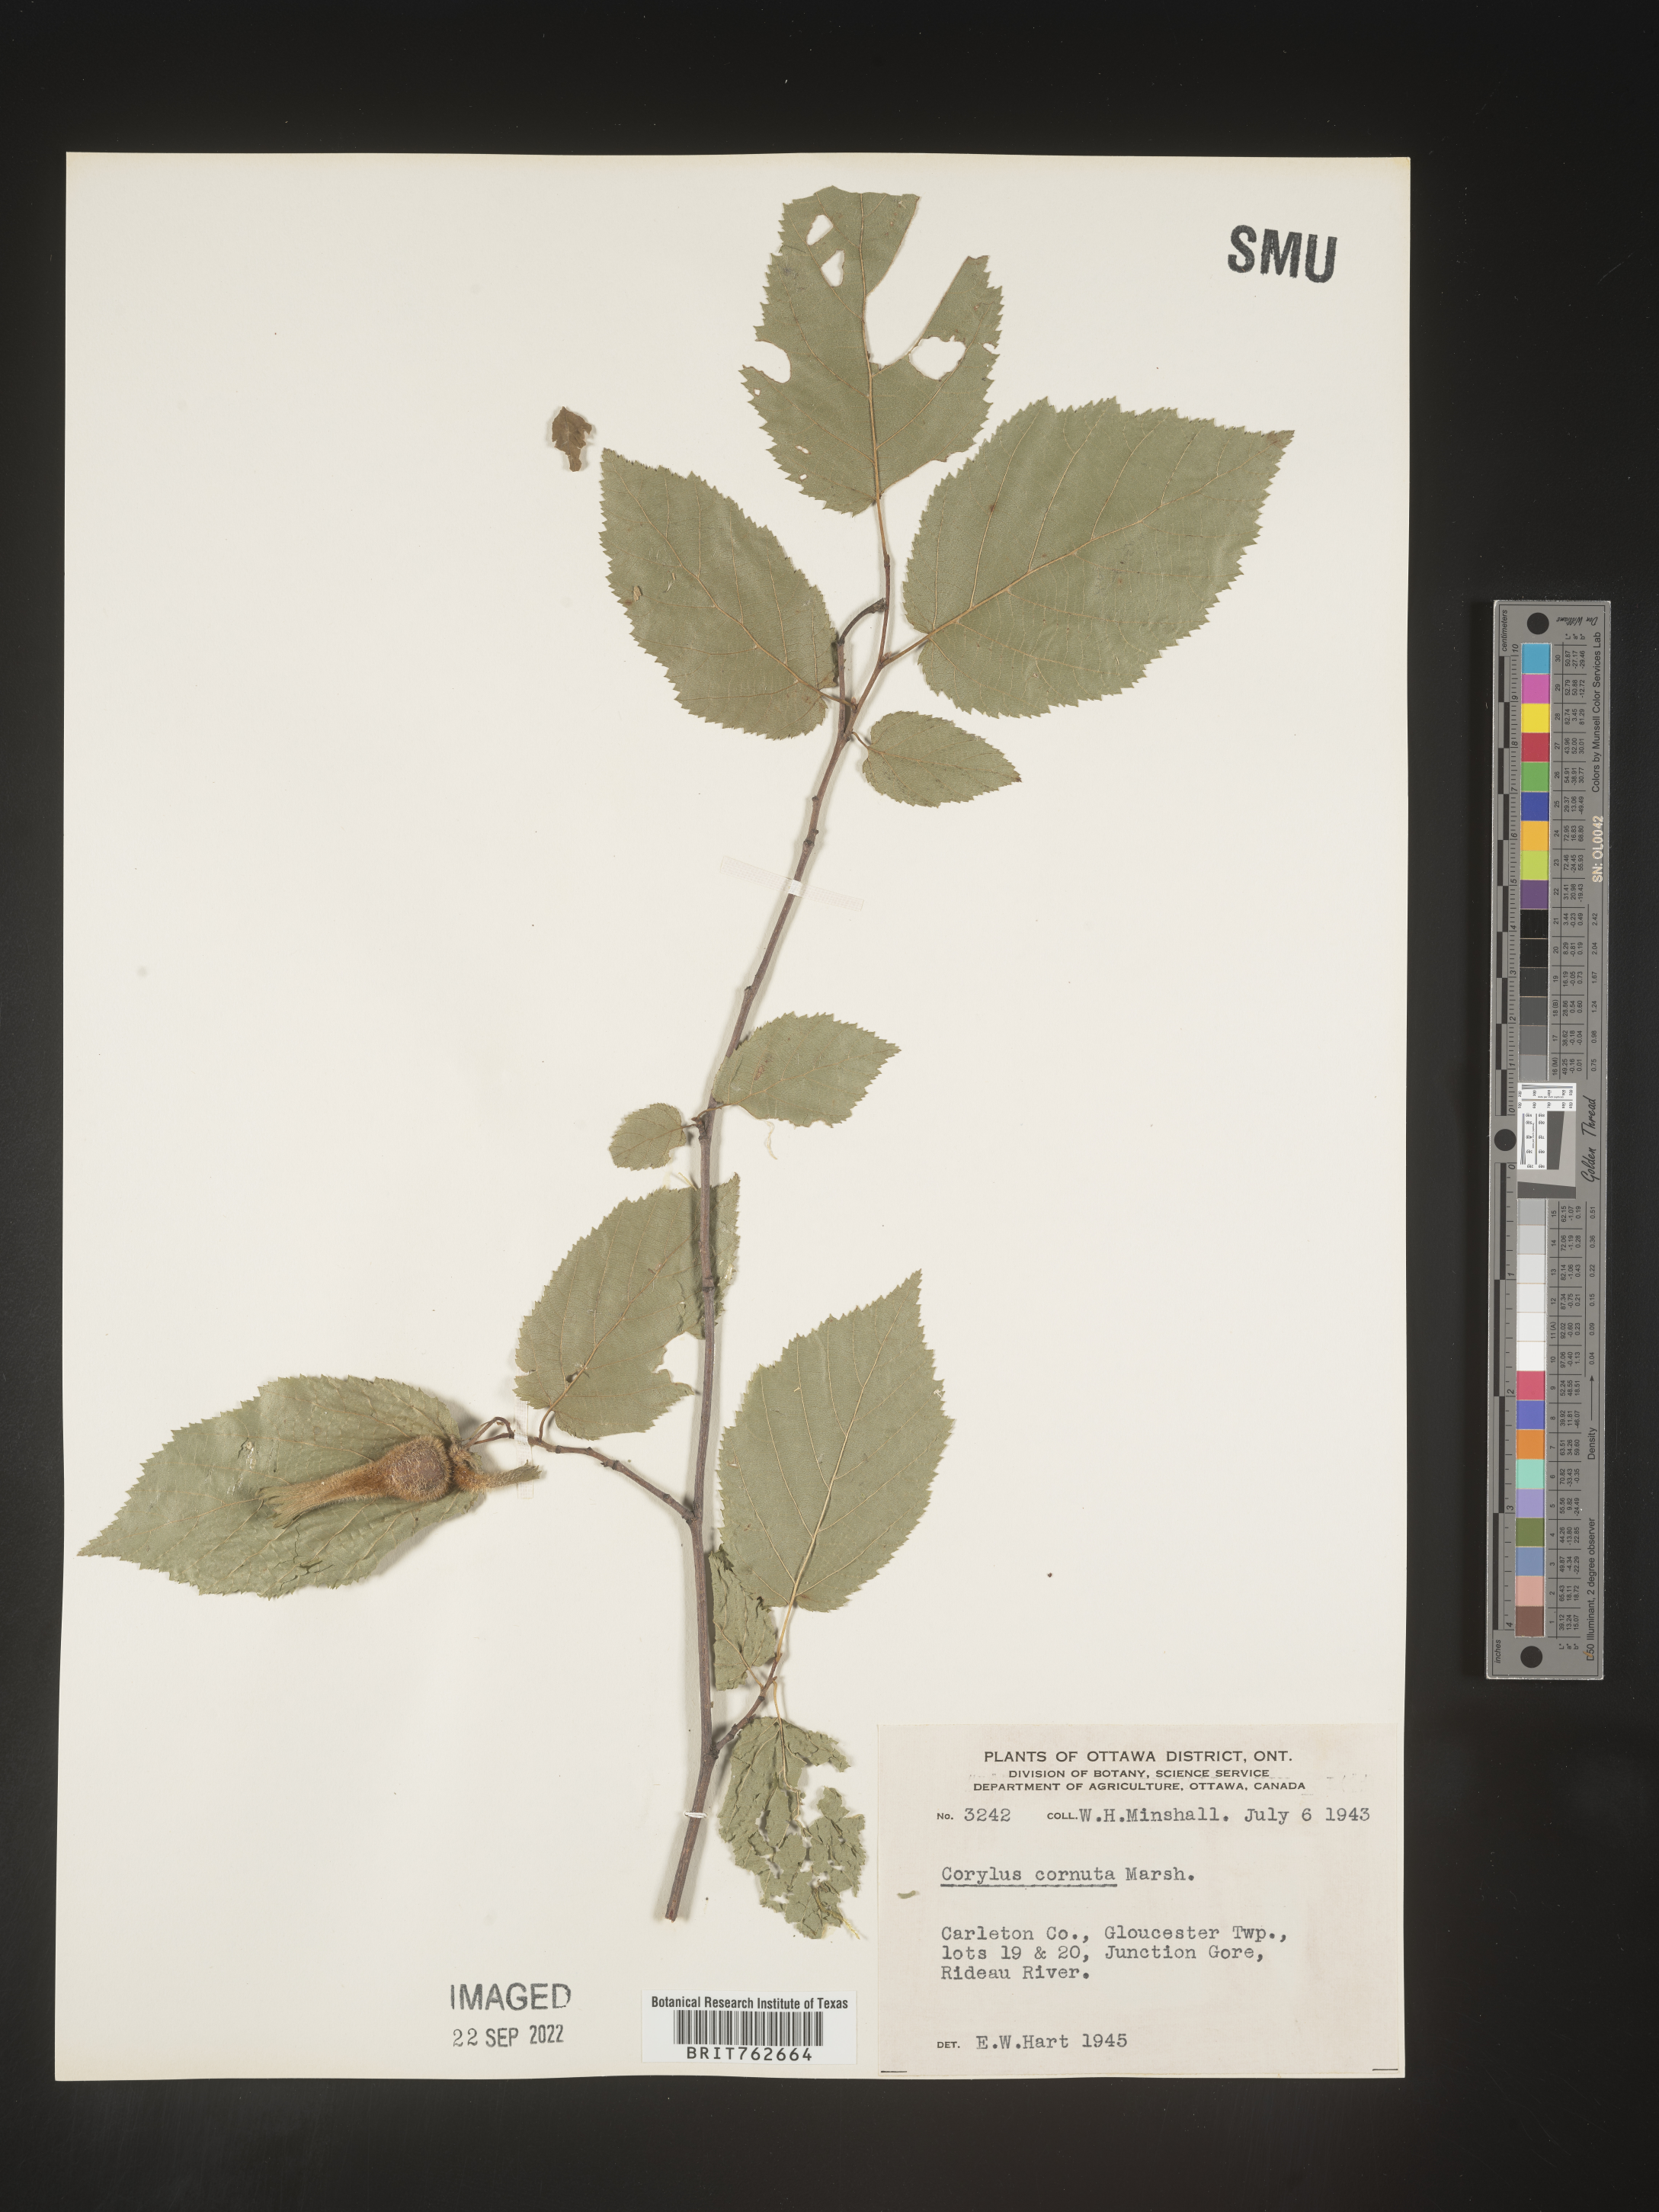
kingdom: Plantae
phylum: Tracheophyta
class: Magnoliopsida
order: Fagales
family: Betulaceae
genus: Corylus
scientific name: Corylus cornuta
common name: Beaked hazel
